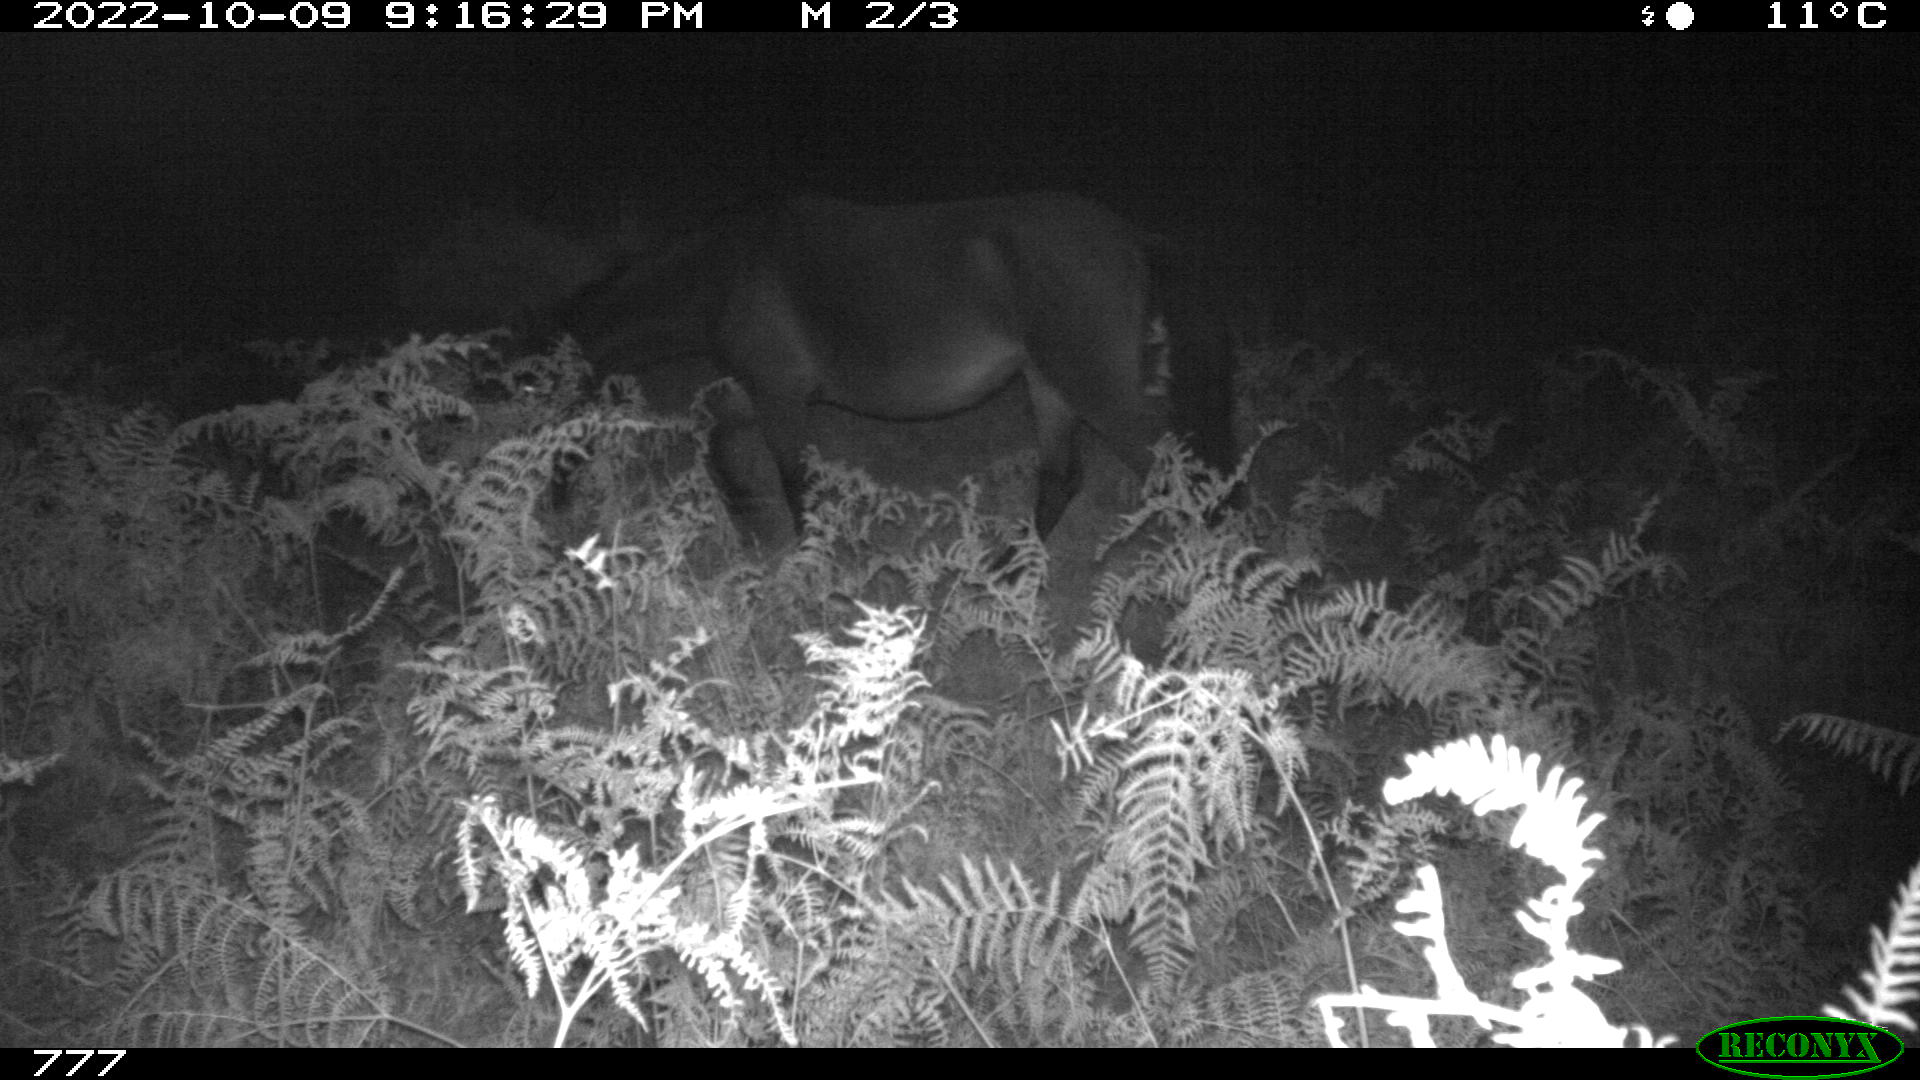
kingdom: Animalia
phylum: Chordata
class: Mammalia
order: Perissodactyla
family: Equidae
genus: Equus
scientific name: Equus caballus
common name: Horse
